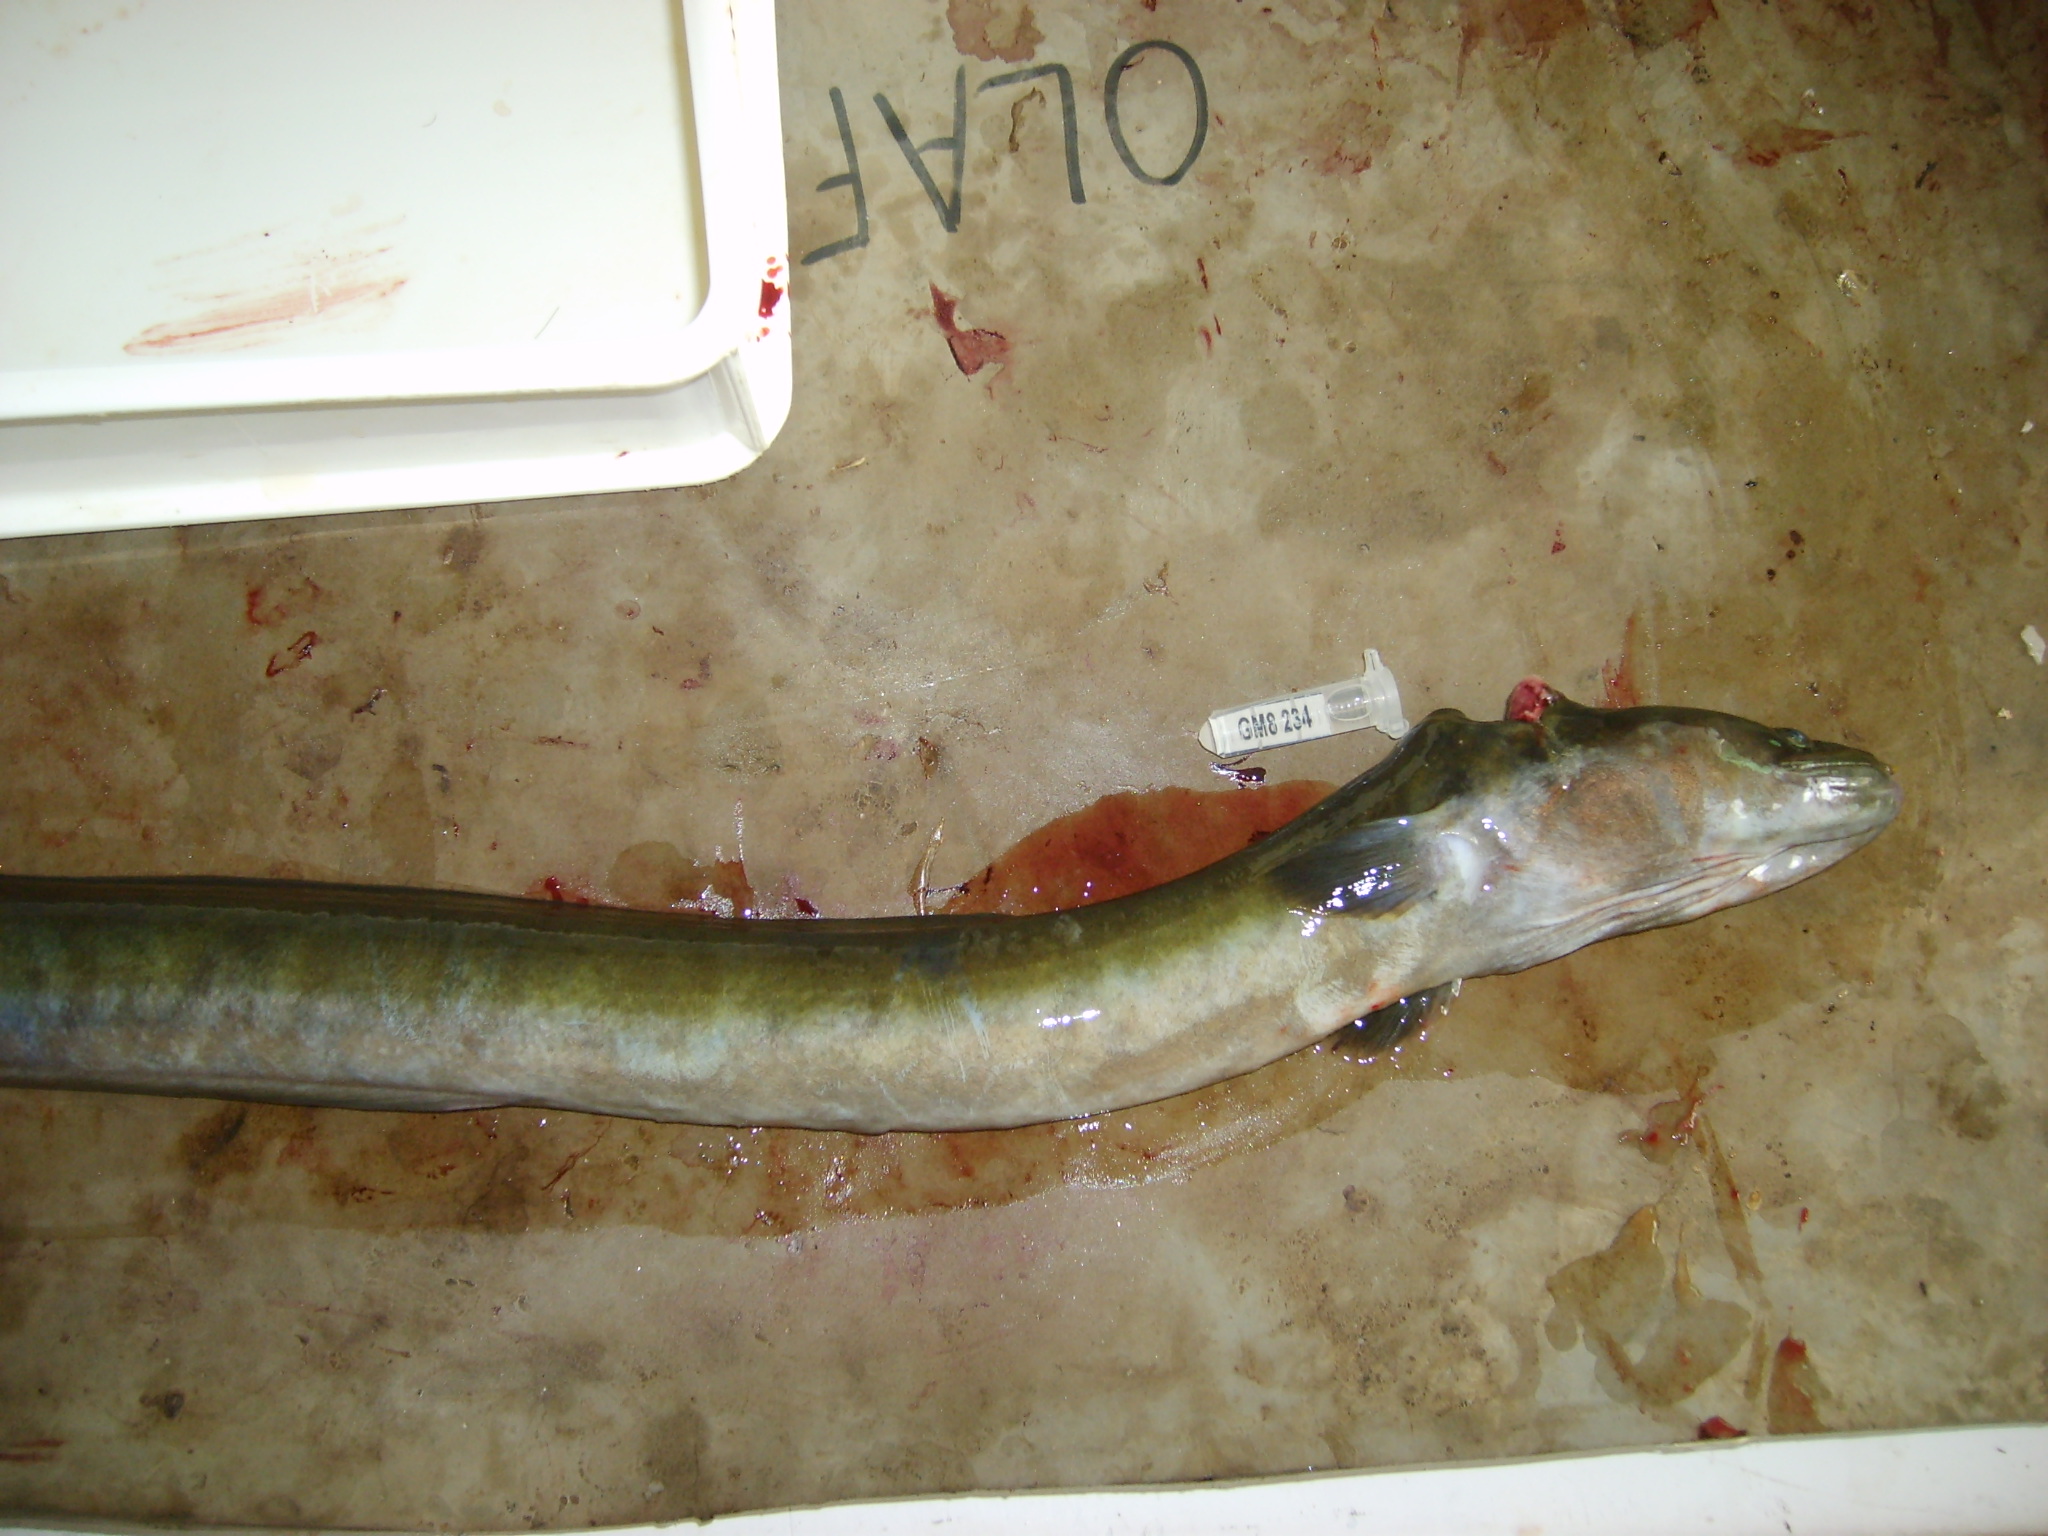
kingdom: Animalia
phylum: Chordata
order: Anguilliformes
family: Anguillidae
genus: Anguilla
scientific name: Anguilla mossambica
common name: African longfin eel
